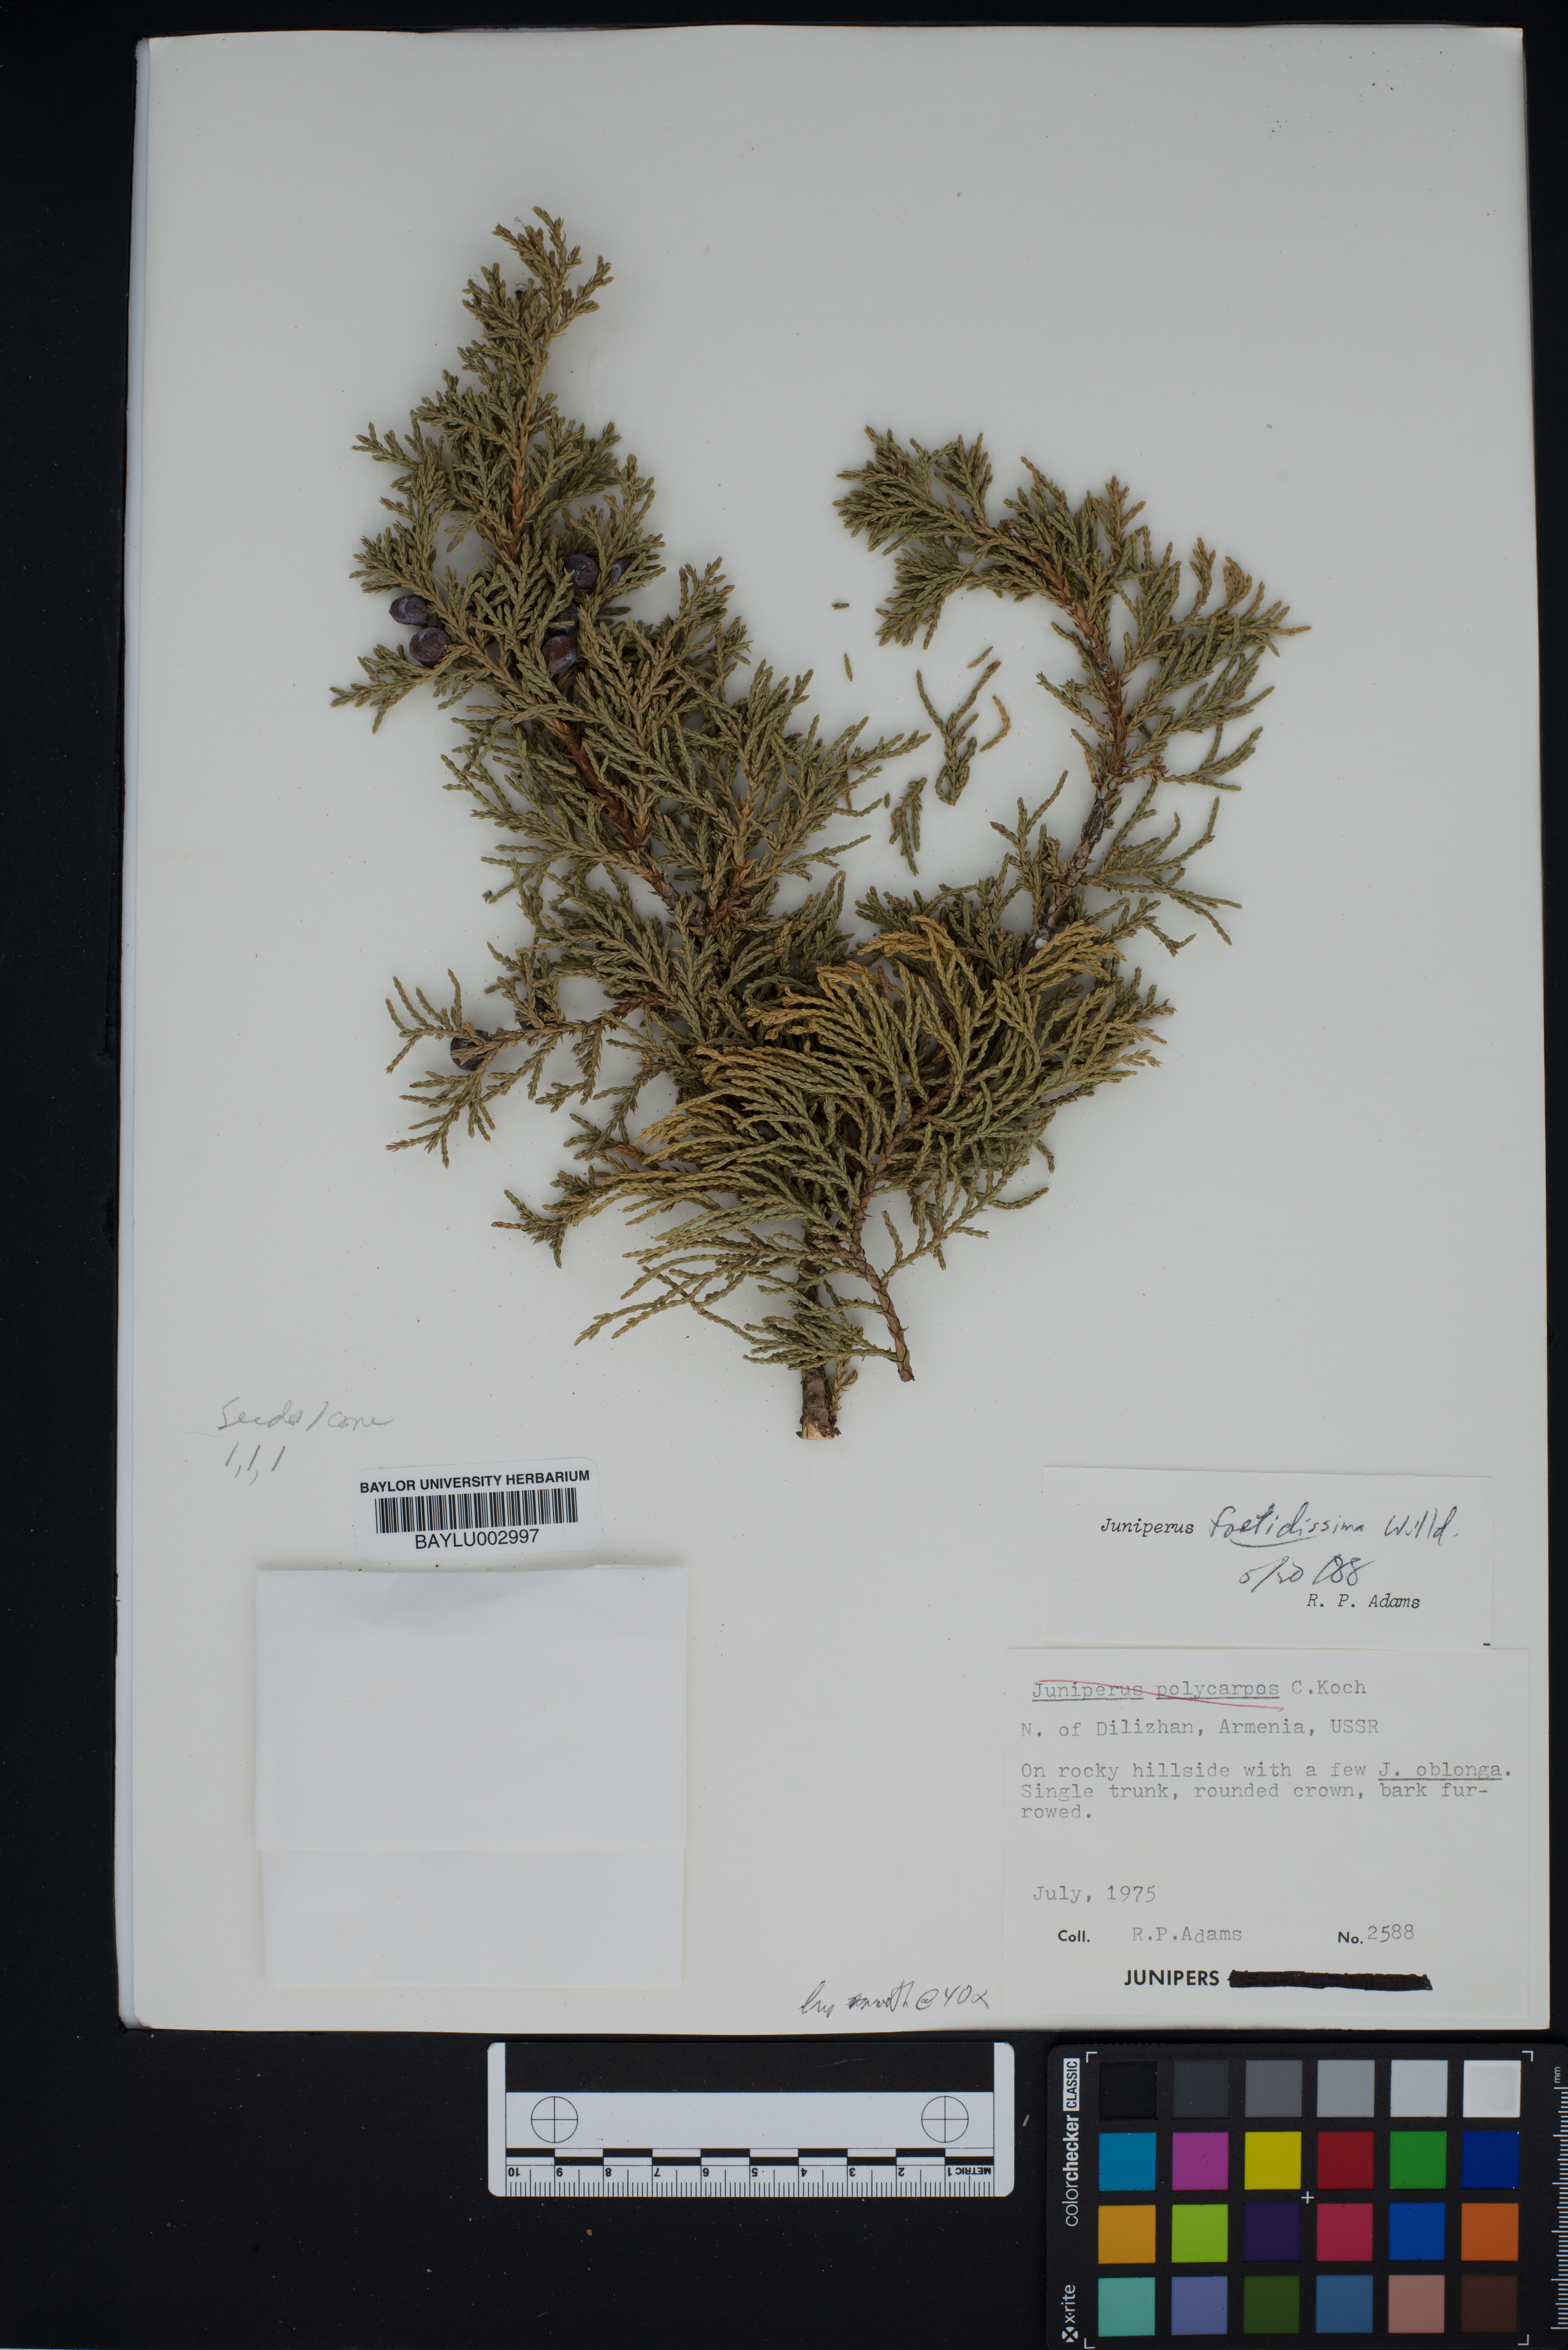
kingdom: Plantae
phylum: Tracheophyta
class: Pinopsida
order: Pinales
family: Cupressaceae
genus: Juniperus
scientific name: Juniperus foetidissima
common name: Stinking juniper
